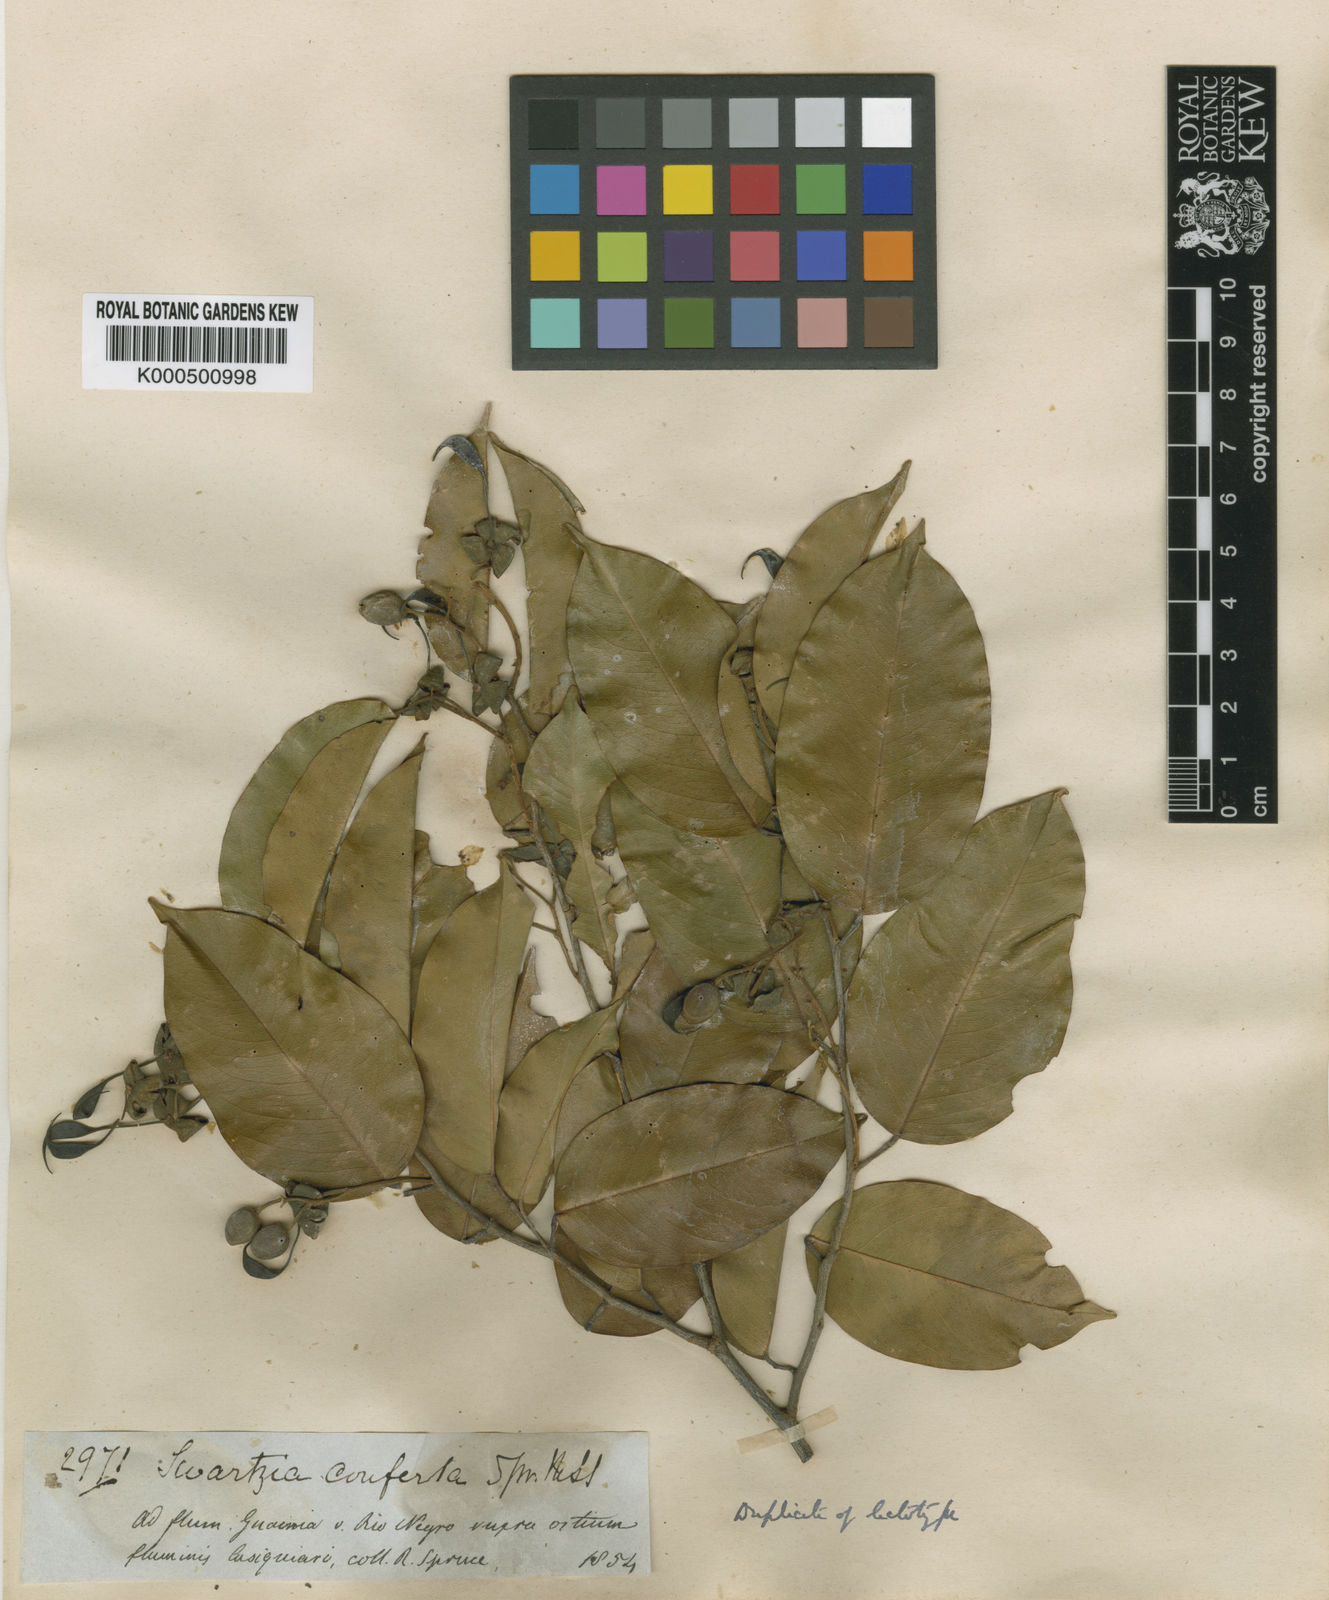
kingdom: Plantae
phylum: Tracheophyta
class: Magnoliopsida
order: Fabales
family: Fabaceae
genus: Swartzia
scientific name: Swartzia conferta
